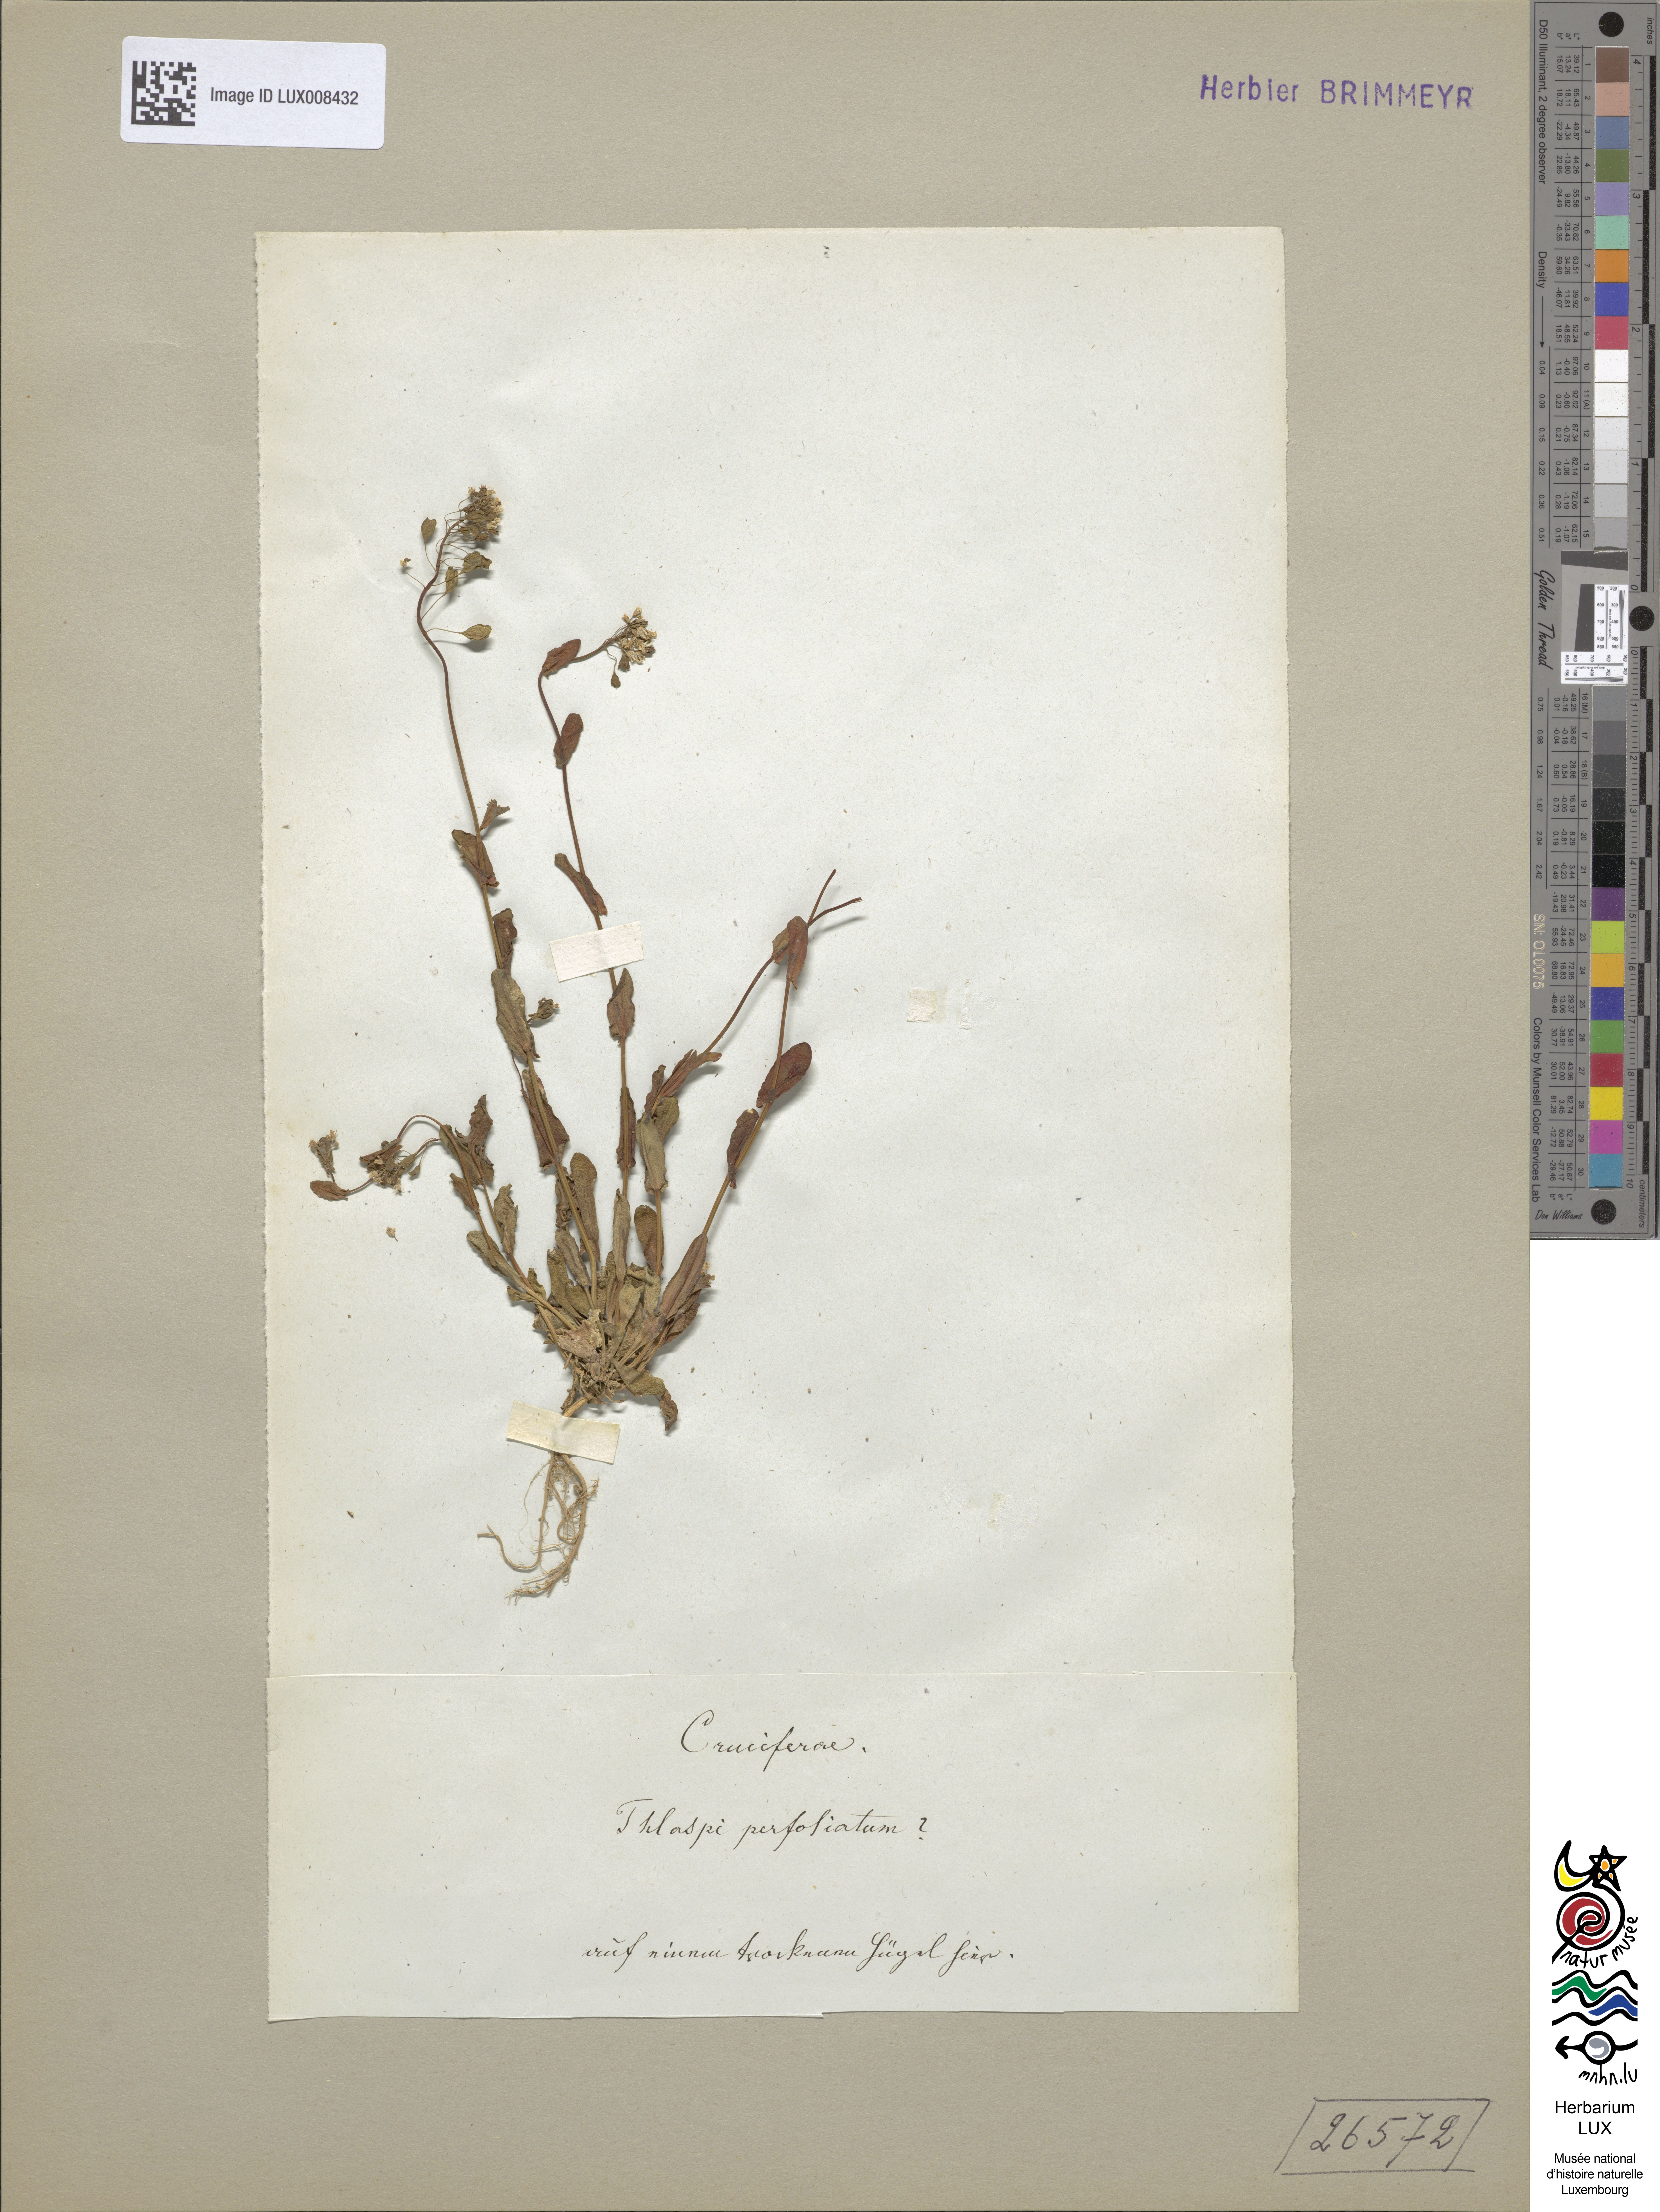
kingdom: Plantae
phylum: Tracheophyta
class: Magnoliopsida
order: Brassicales
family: Brassicaceae
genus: Noccaea
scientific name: Noccaea perfoliata
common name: Perfoliate pennycress
